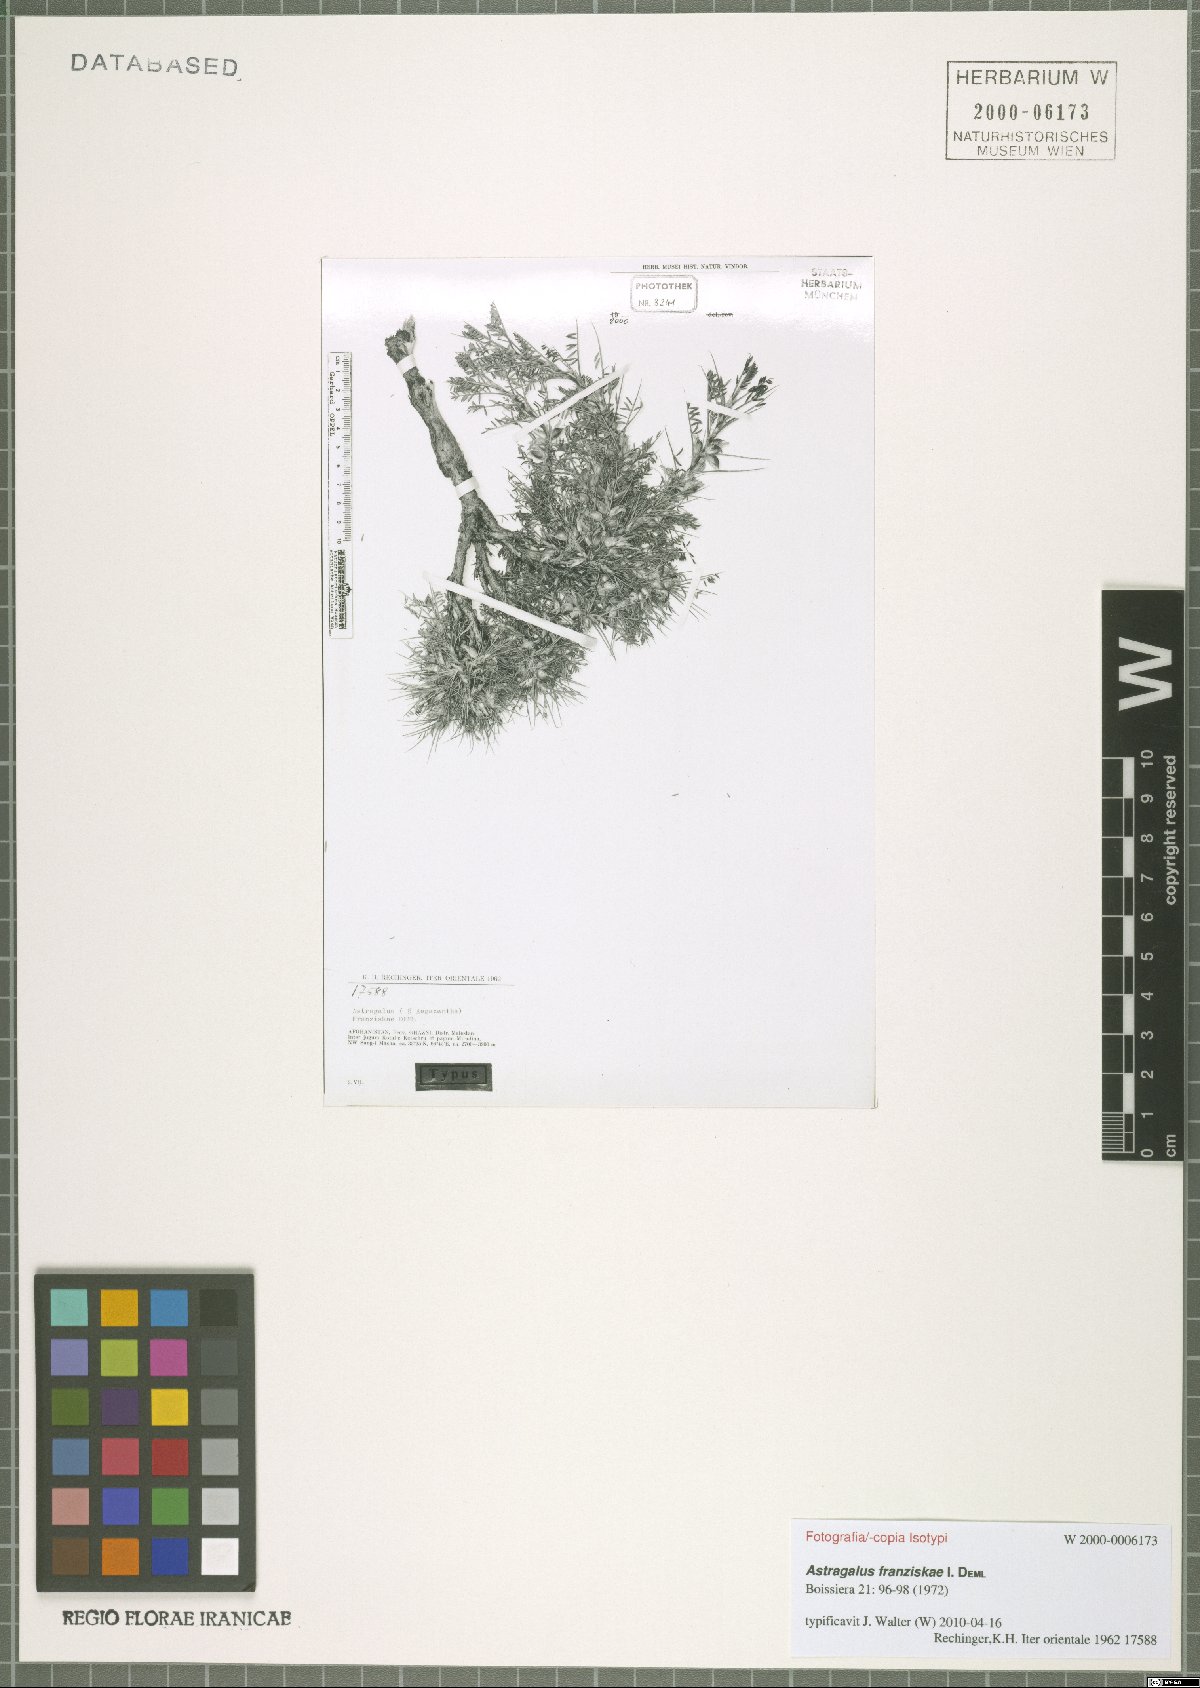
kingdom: Plantae
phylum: Tracheophyta
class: Magnoliopsida
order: Fabales
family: Fabaceae
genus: Astragalus
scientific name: Astragalus franziskae
